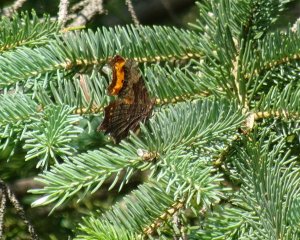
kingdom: Animalia
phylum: Arthropoda
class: Insecta
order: Lepidoptera
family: Nymphalidae
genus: Polygonia
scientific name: Polygonia progne
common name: Gray Comma
